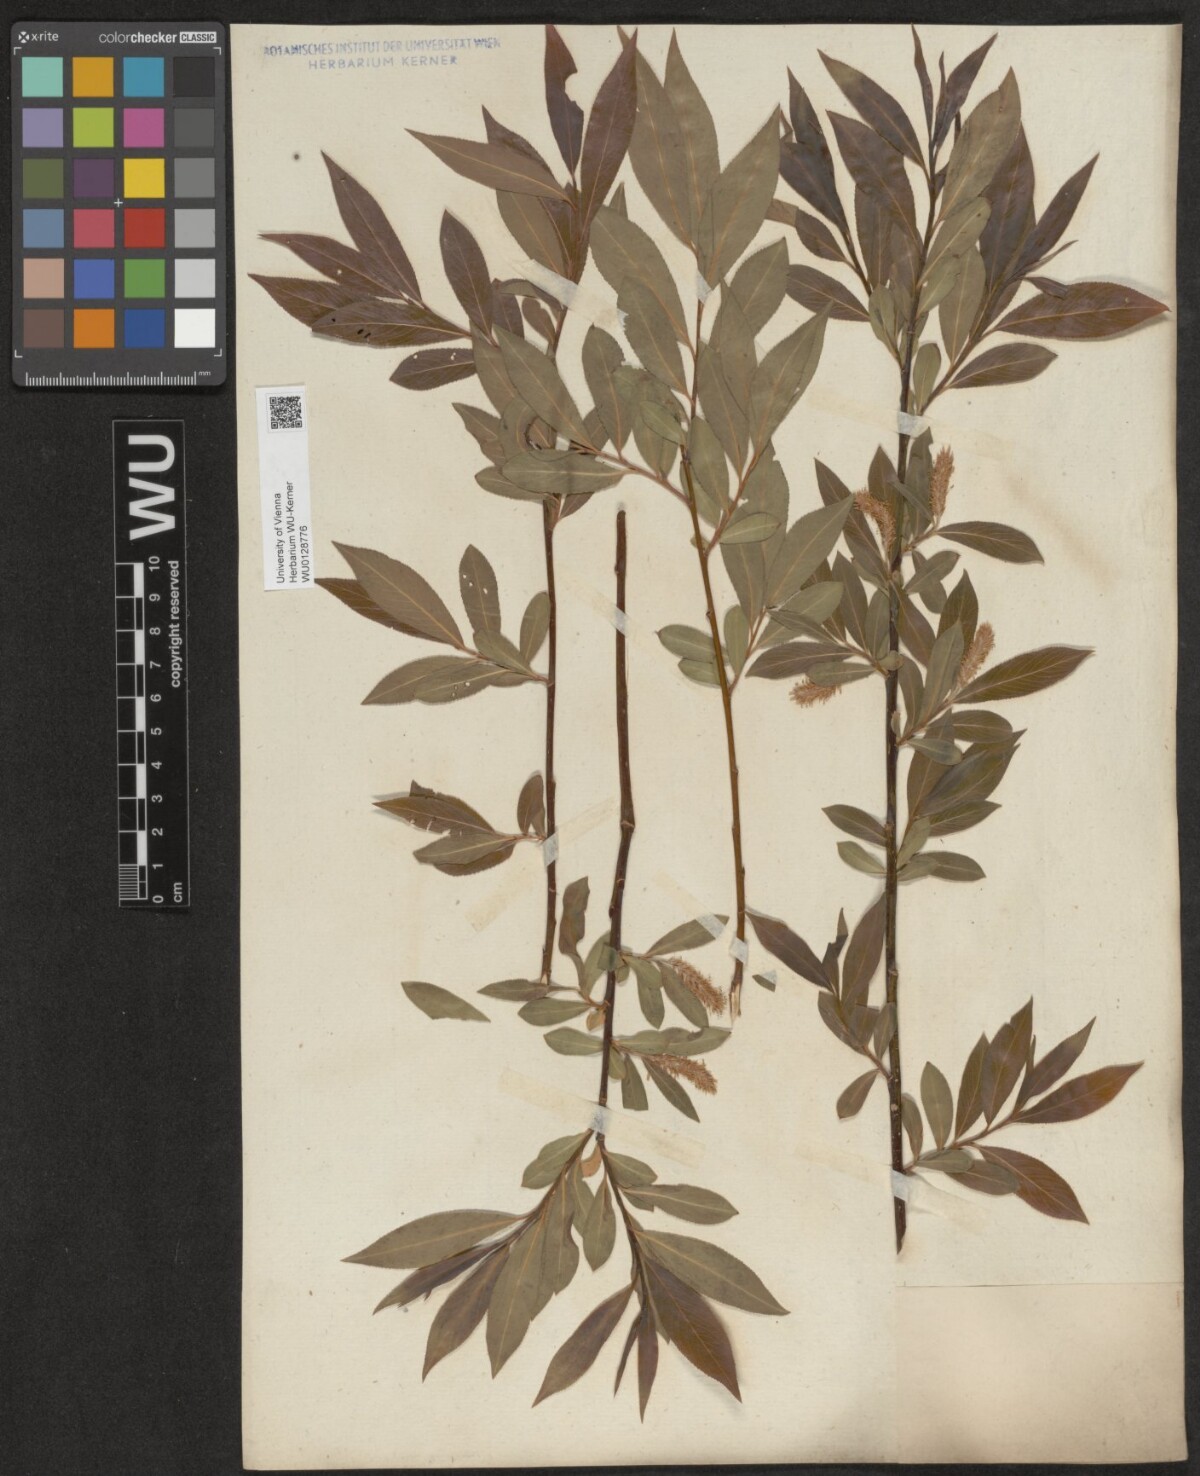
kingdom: Plantae
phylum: Tracheophyta
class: Magnoliopsida
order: Malpighiales
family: Salicaceae
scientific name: Salicaceae
